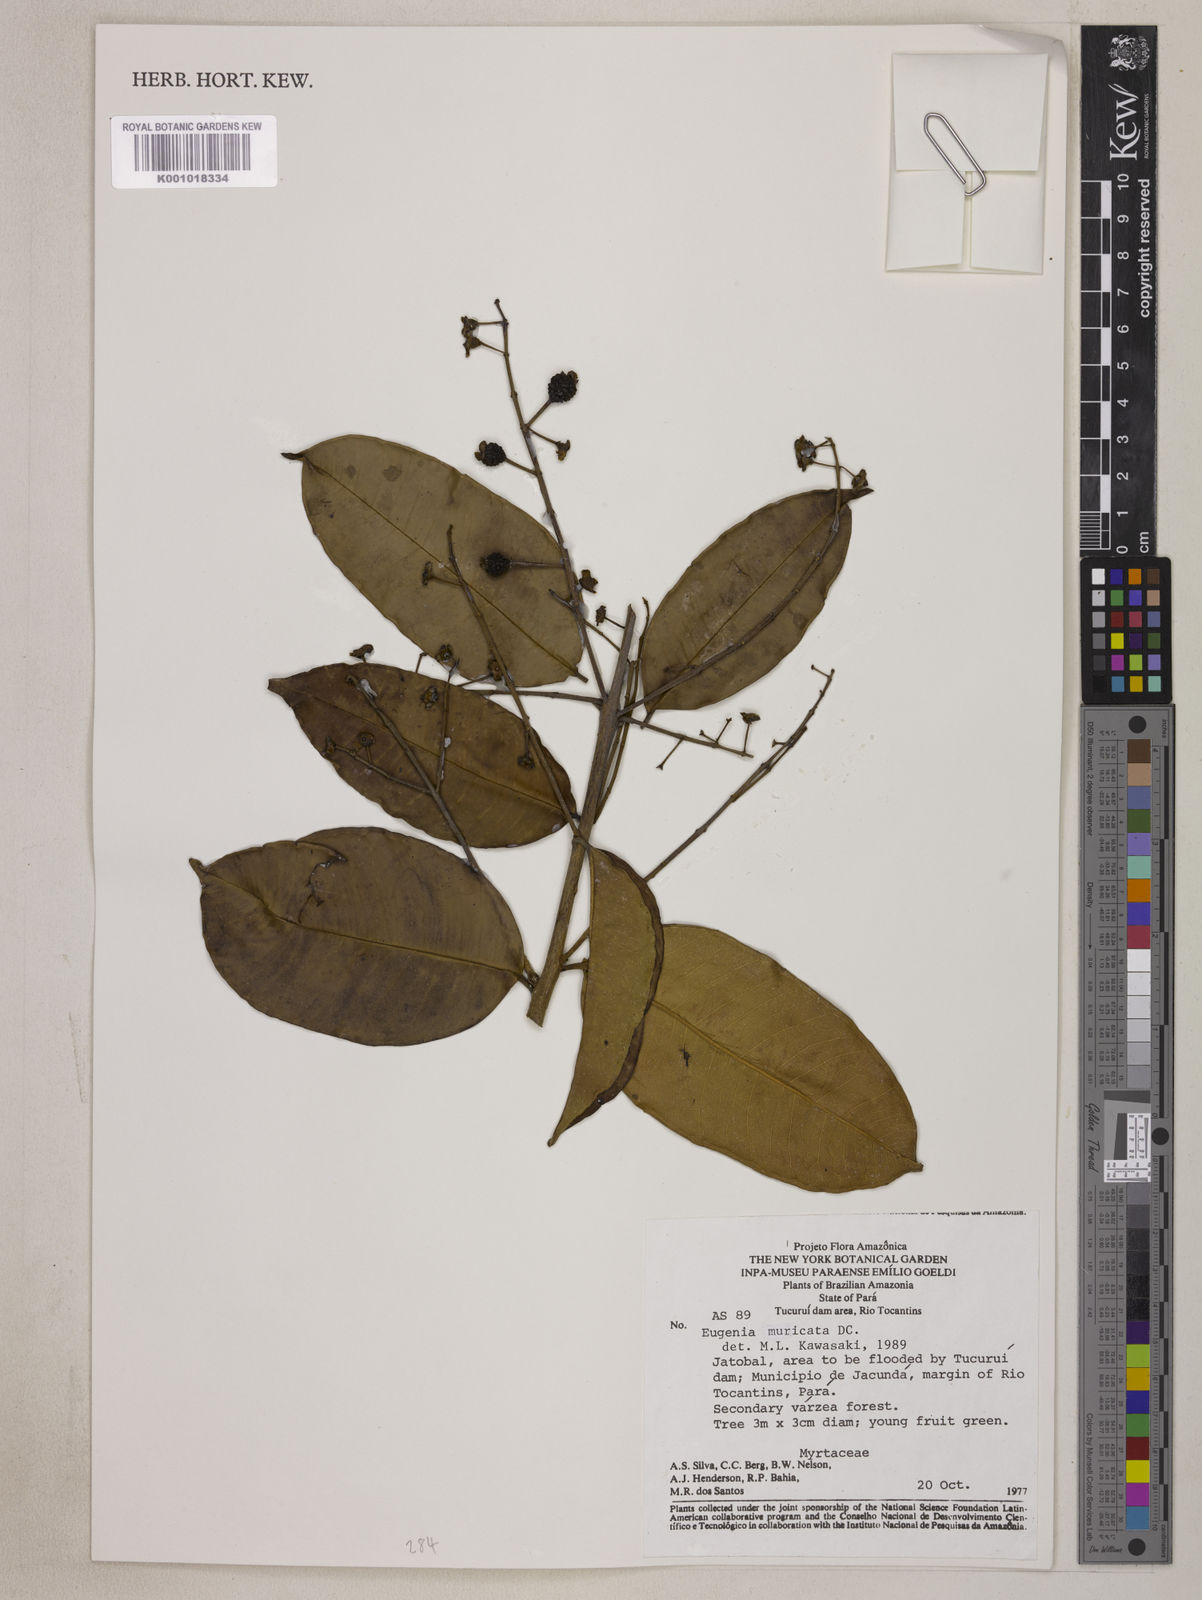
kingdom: Plantae
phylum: Tracheophyta
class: Magnoliopsida
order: Myrtales
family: Myrtaceae
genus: Eugenia
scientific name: Eugenia muricata
